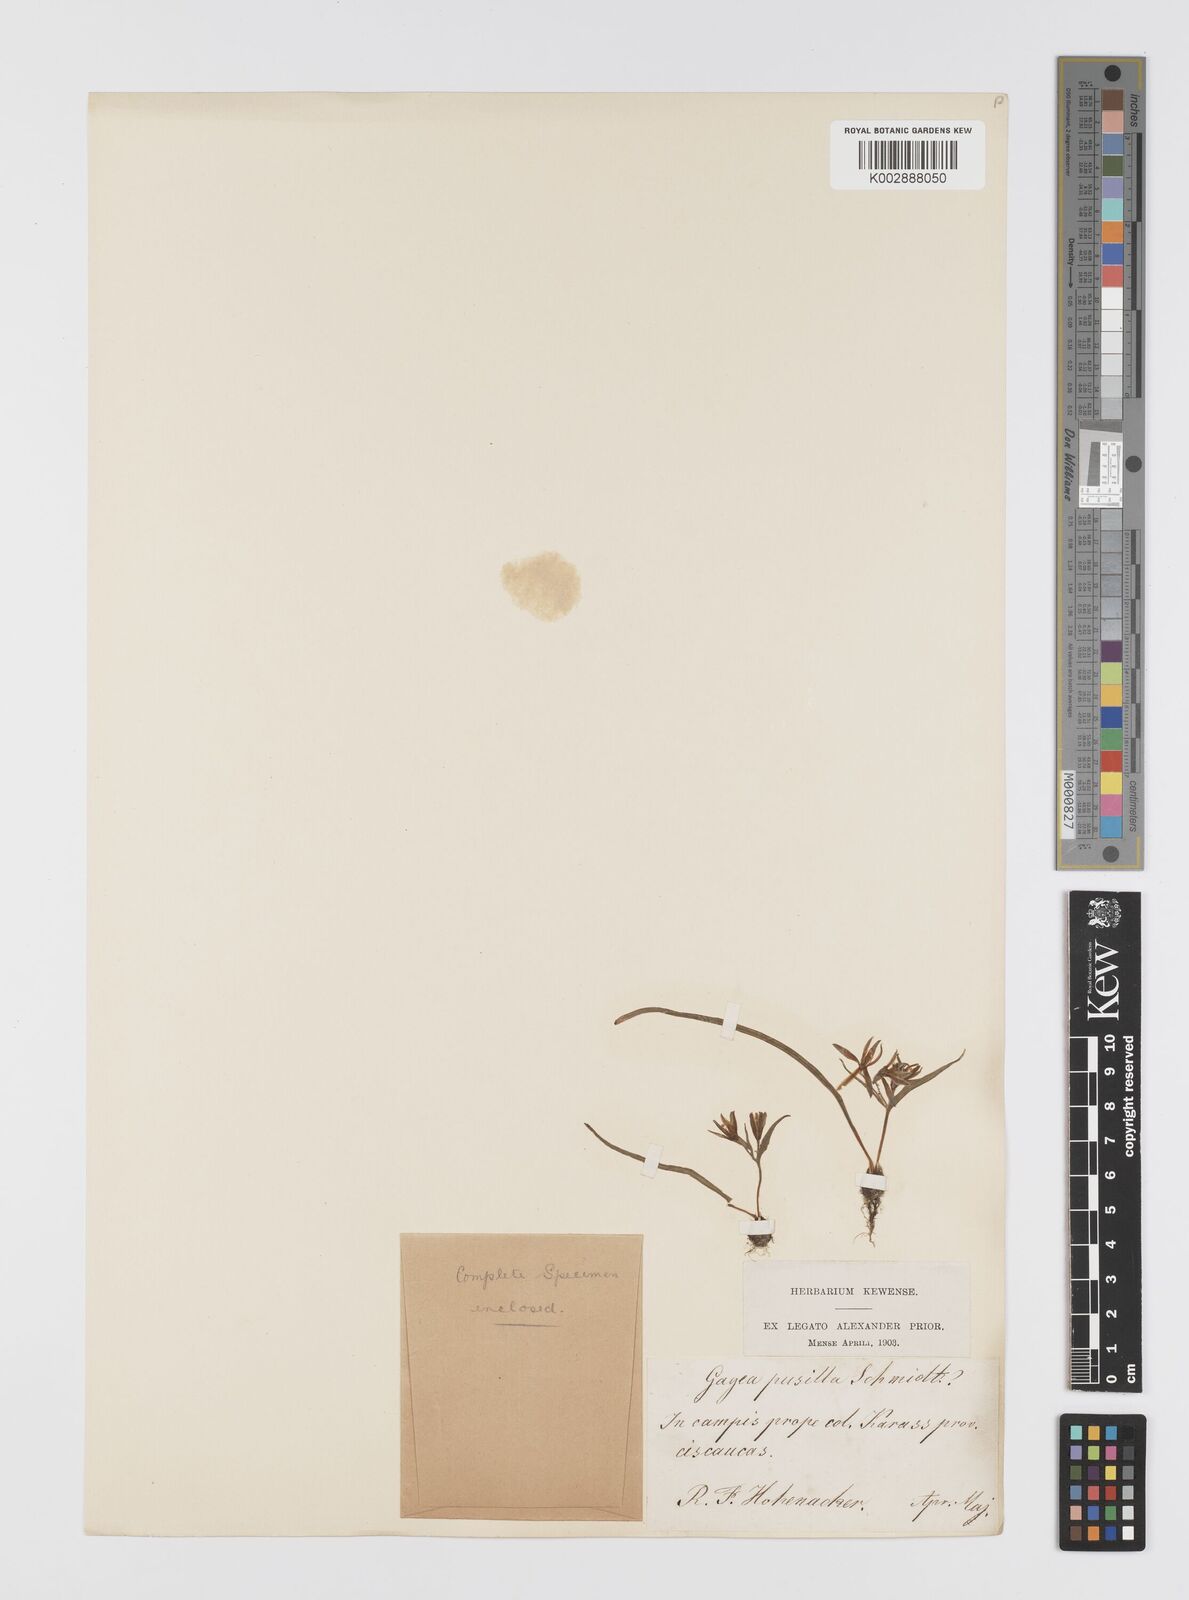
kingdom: Plantae
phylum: Tracheophyta
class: Liliopsida
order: Liliales
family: Liliaceae
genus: Gagea
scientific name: Gagea pusilla
